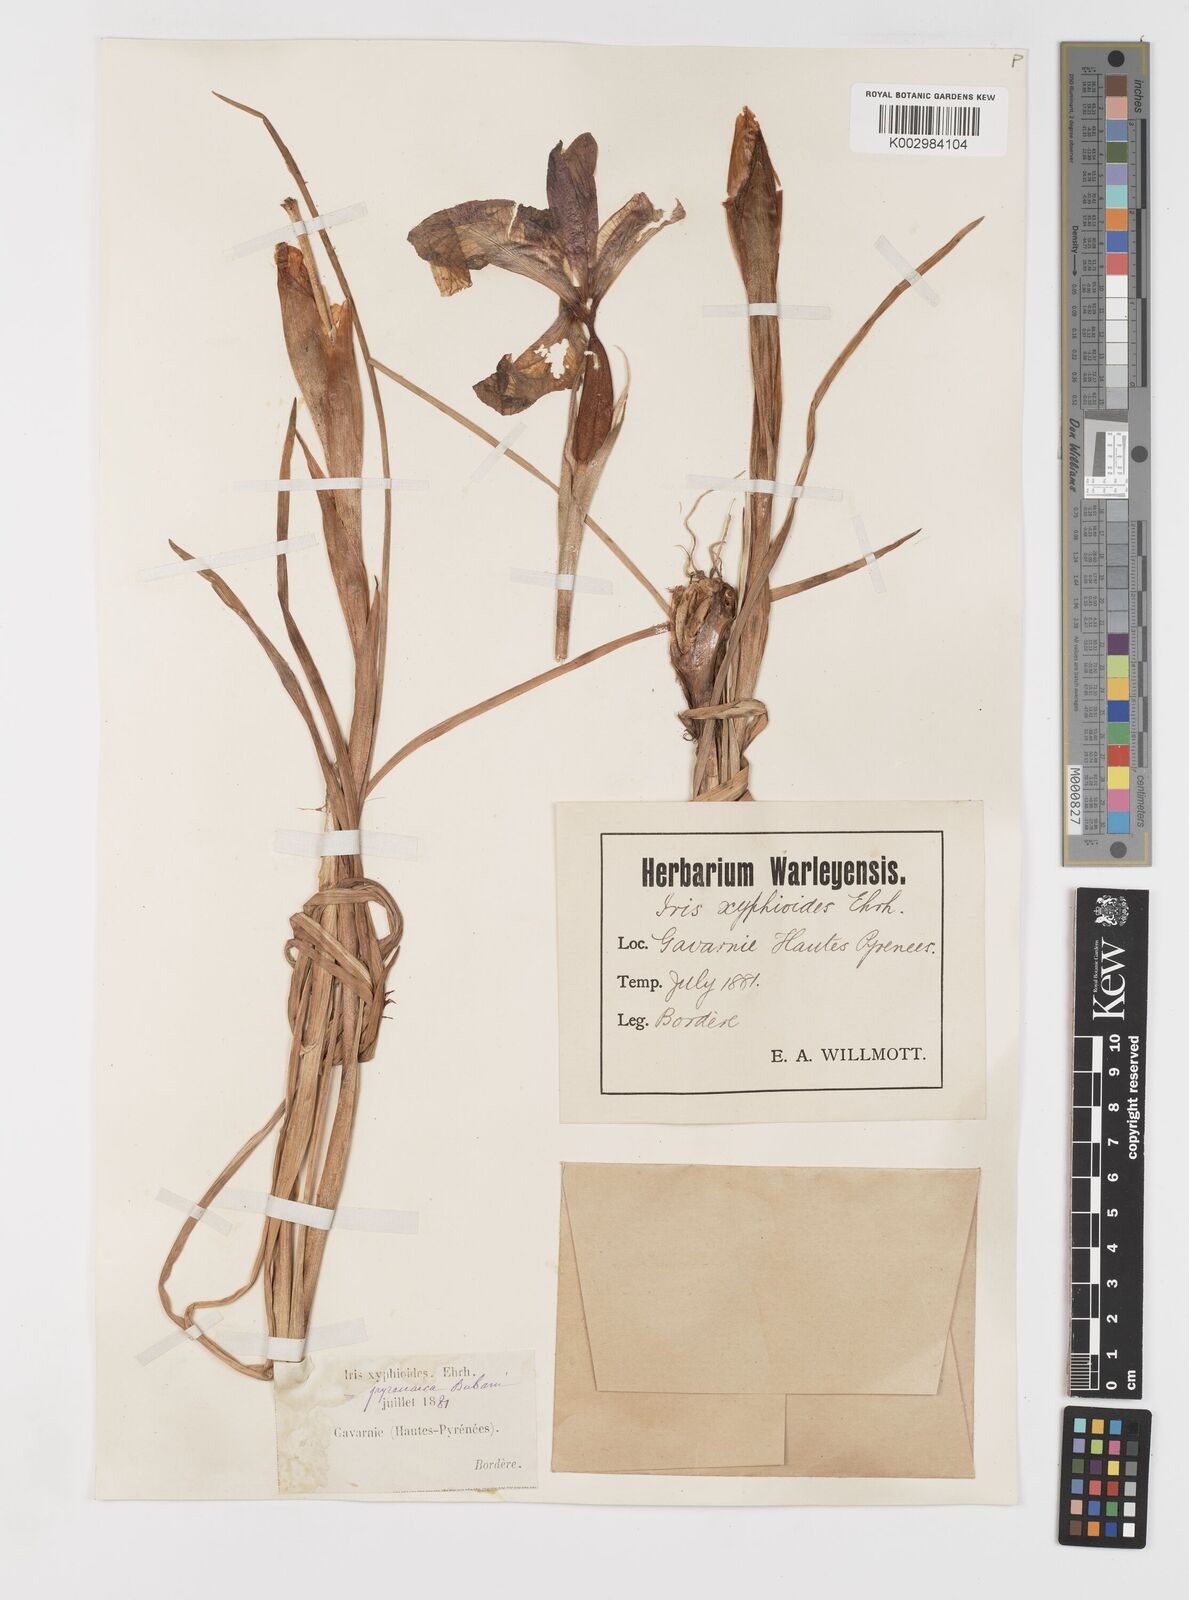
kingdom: Plantae
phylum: Tracheophyta
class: Liliopsida
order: Asparagales
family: Iridaceae
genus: Iris
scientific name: Iris jacquinii
